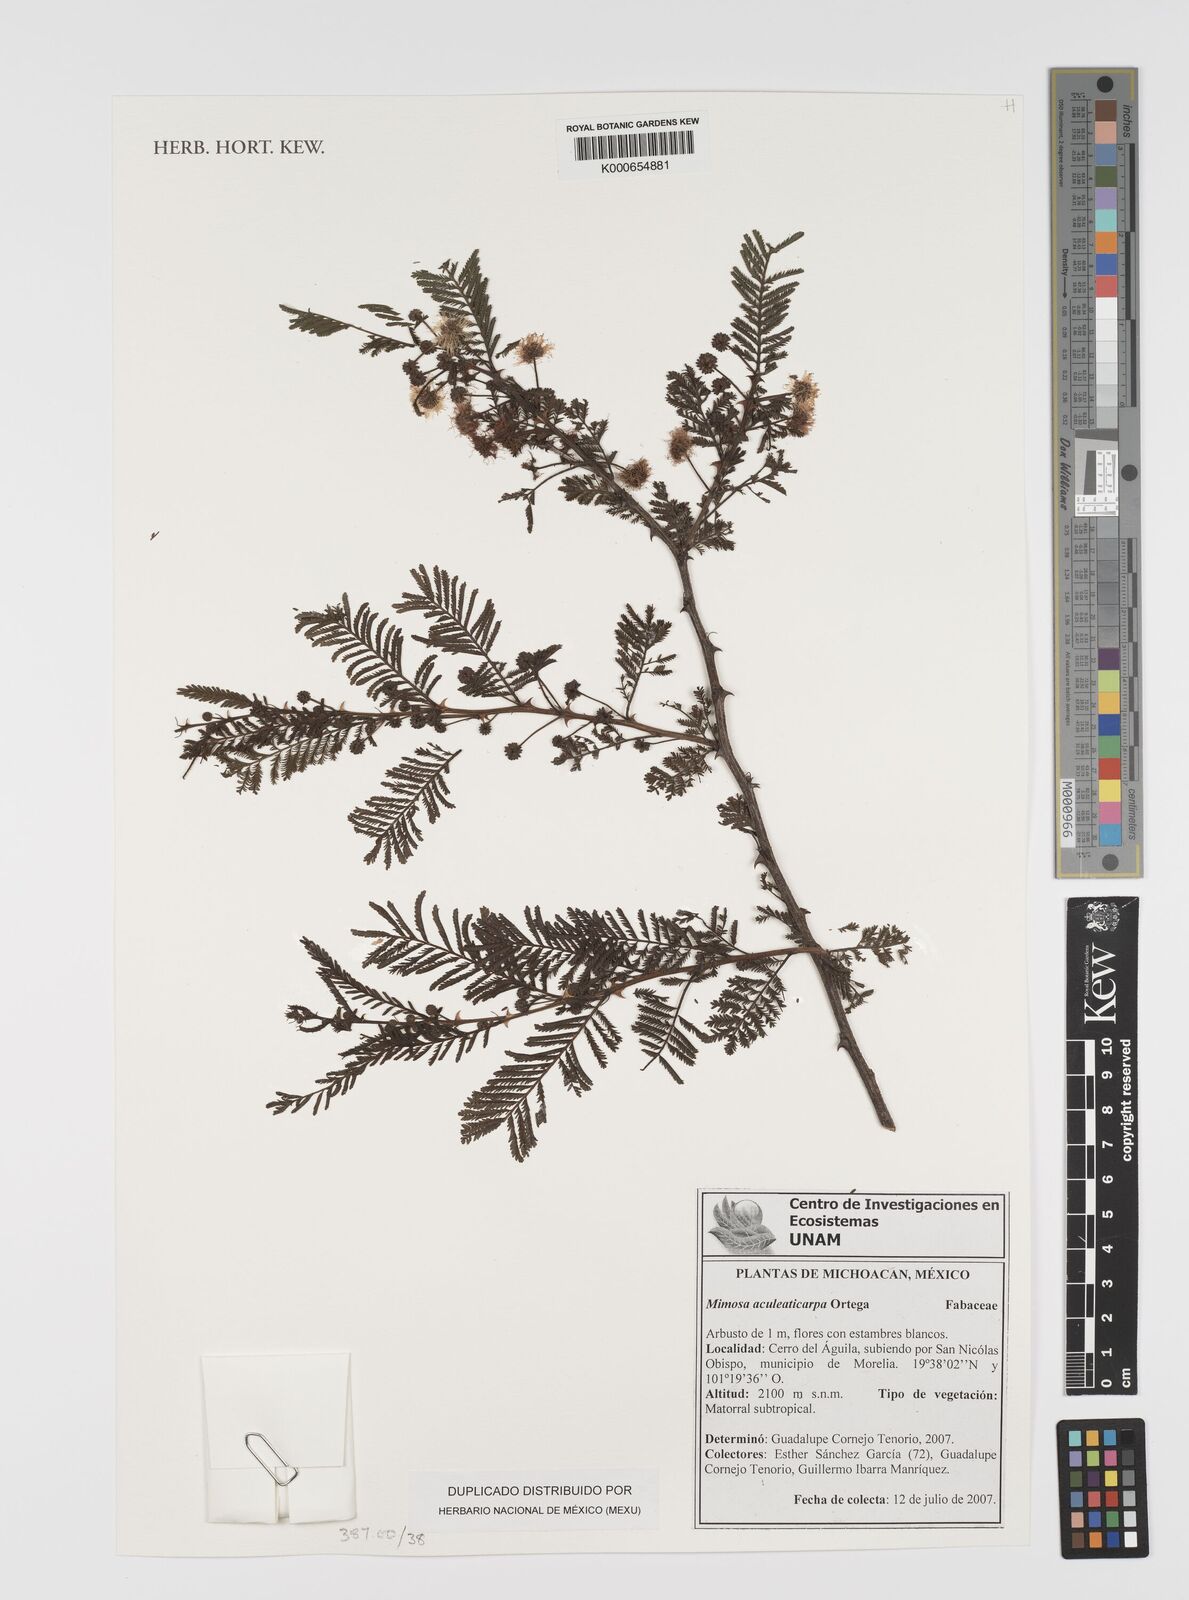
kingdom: Plantae
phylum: Tracheophyta
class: Magnoliopsida
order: Fabales
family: Fabaceae
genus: Mimosa
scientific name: Mimosa aculeaticarpa
